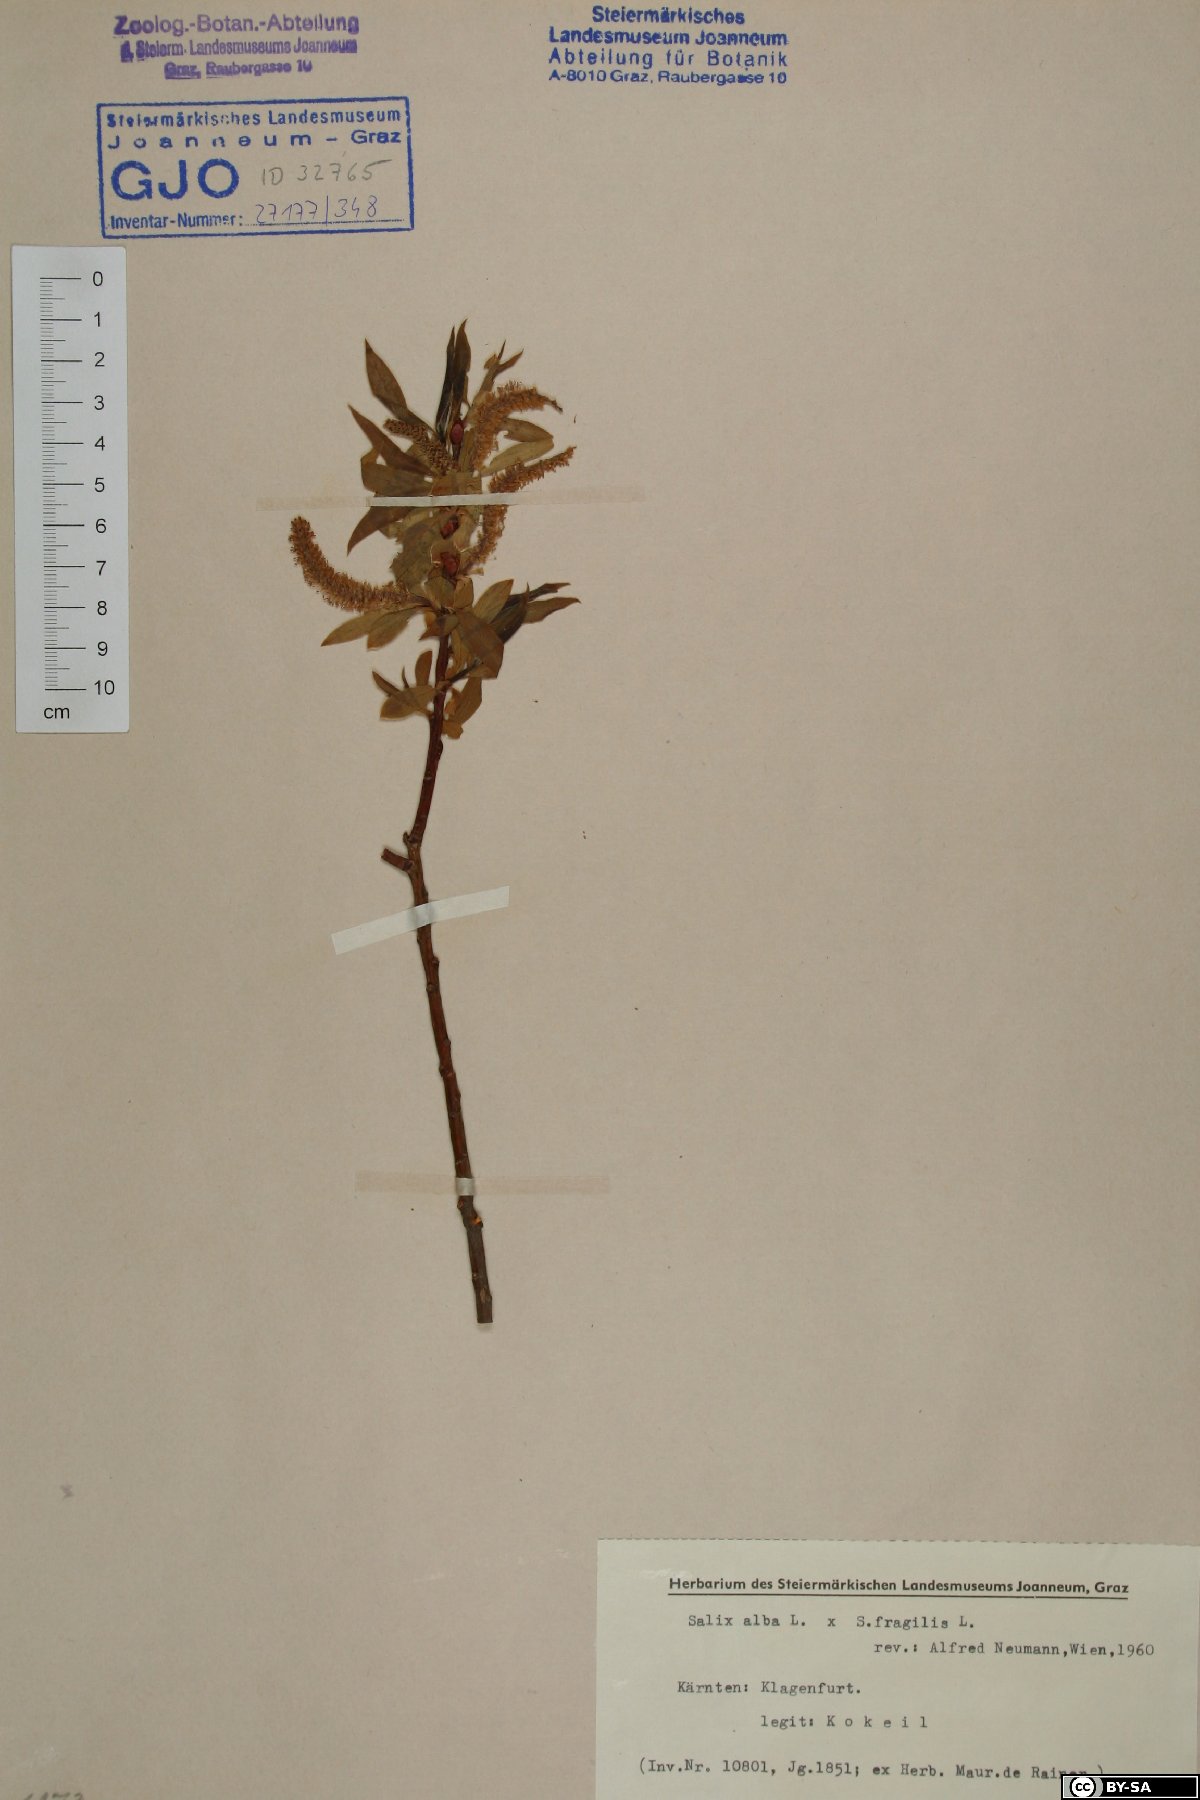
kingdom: Plantae
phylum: Tracheophyta
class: Magnoliopsida
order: Malpighiales
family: Salicaceae
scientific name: Salicaceae
